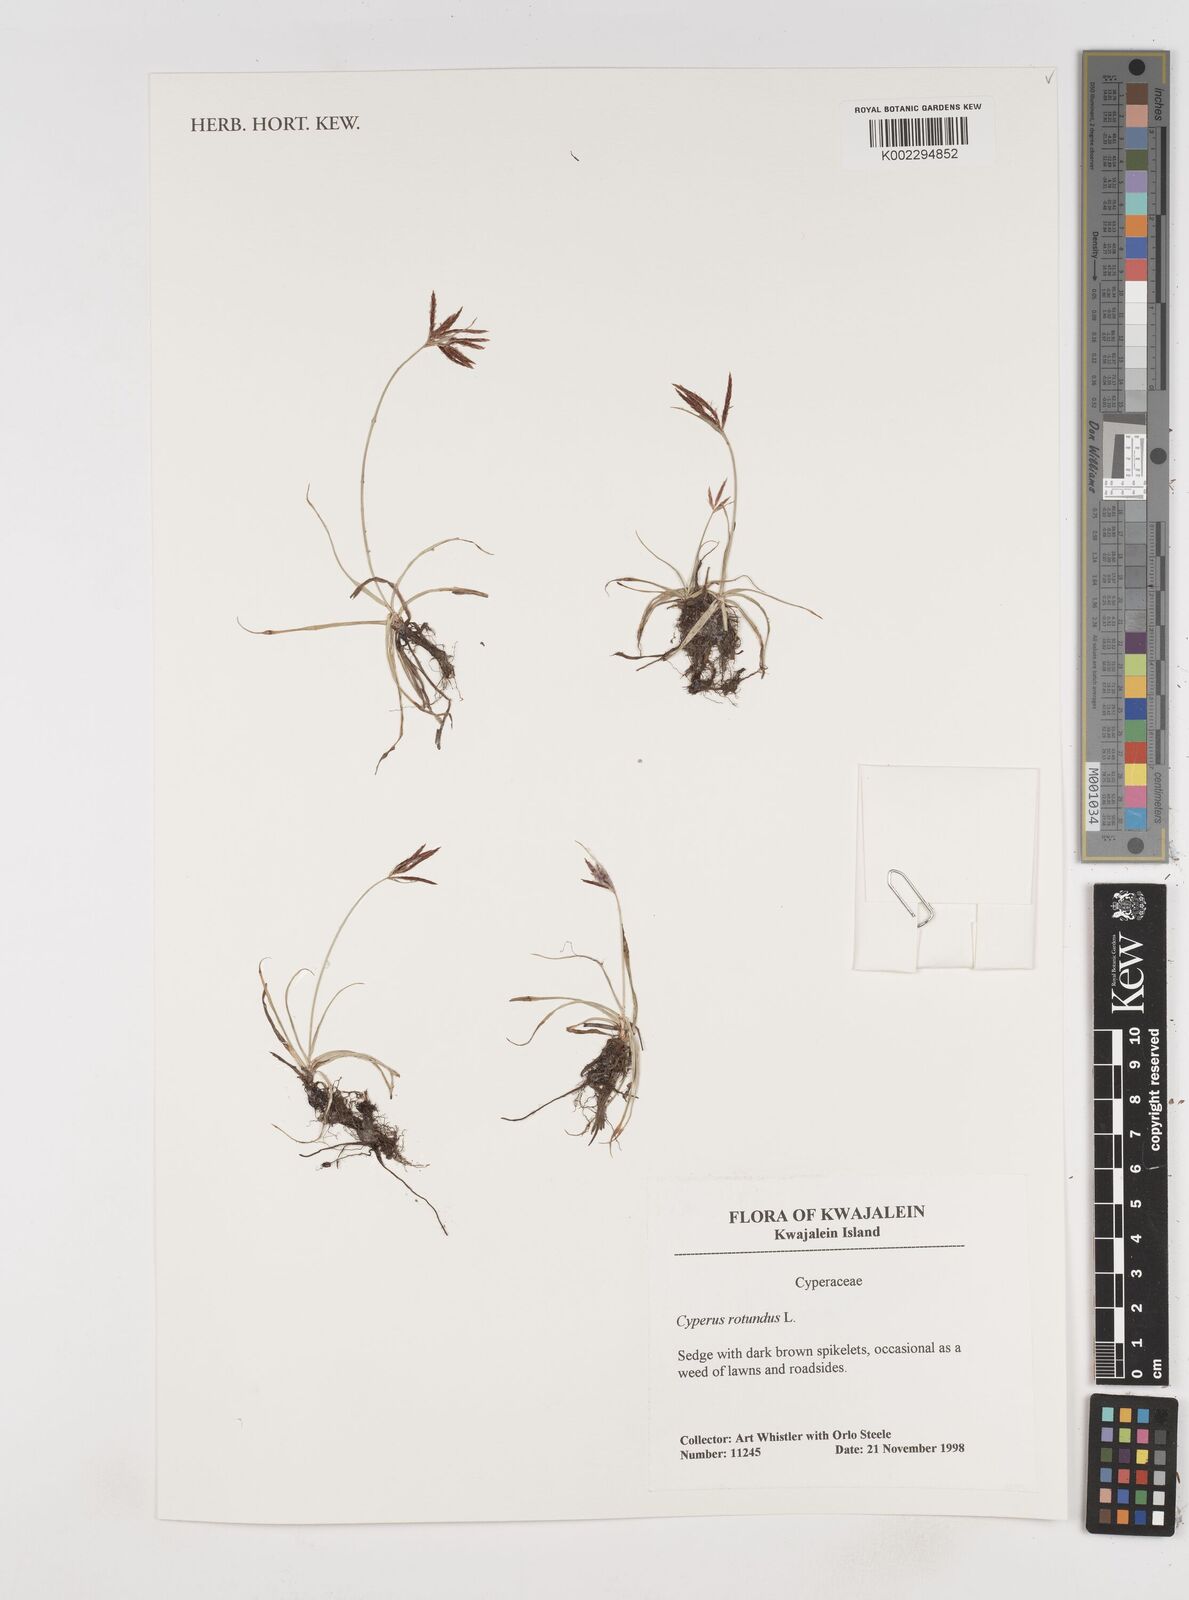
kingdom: Plantae
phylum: Tracheophyta
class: Liliopsida
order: Poales
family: Cyperaceae
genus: Cyperus
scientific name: Cyperus rotundus
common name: Nutgrass
